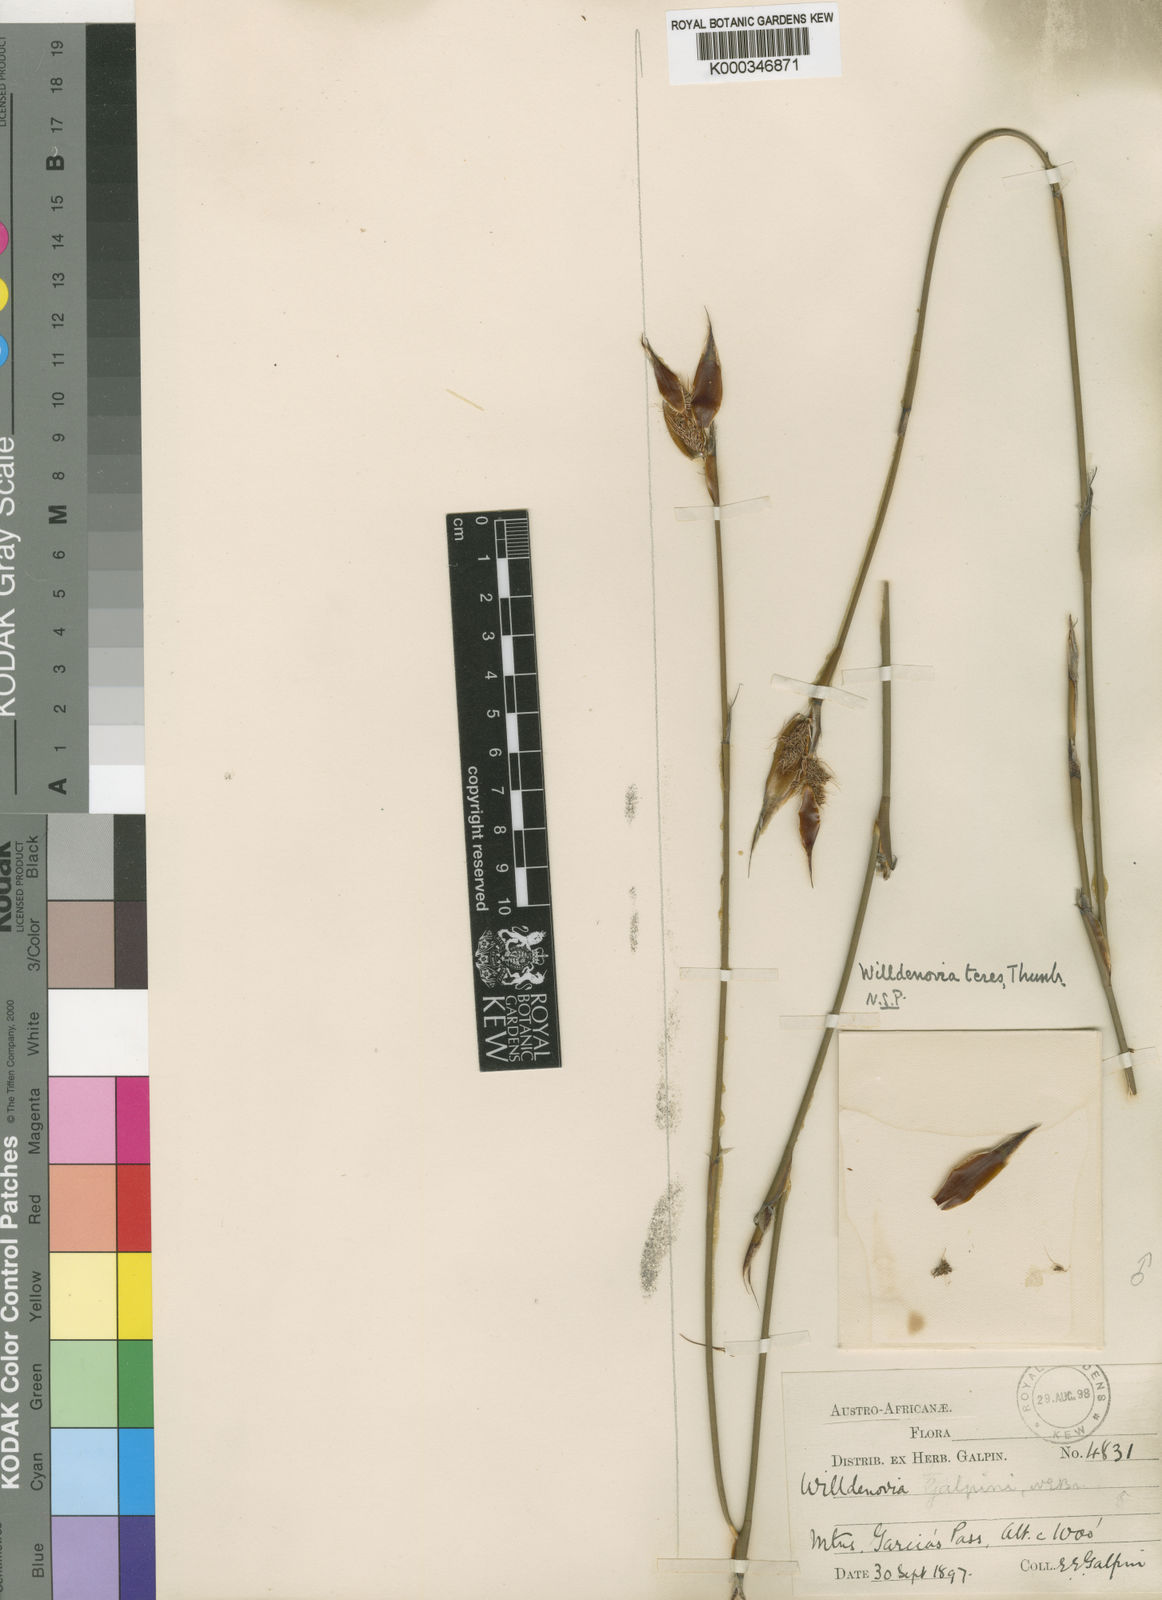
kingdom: Plantae
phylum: Tracheophyta
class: Liliopsida
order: Poales
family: Restionaceae
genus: Willdenowia
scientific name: Willdenowia teres
